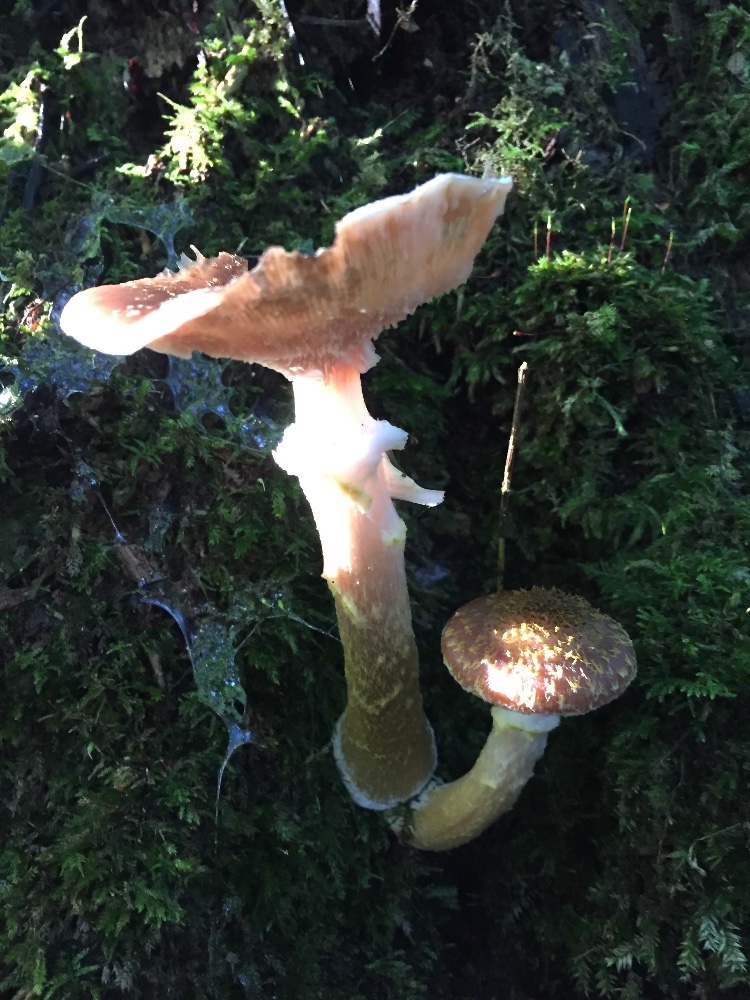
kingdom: Fungi
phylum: Basidiomycota
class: Agaricomycetes
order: Agaricales
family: Physalacriaceae
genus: Armillaria
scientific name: Armillaria lutea
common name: køllestokket honningsvamp
